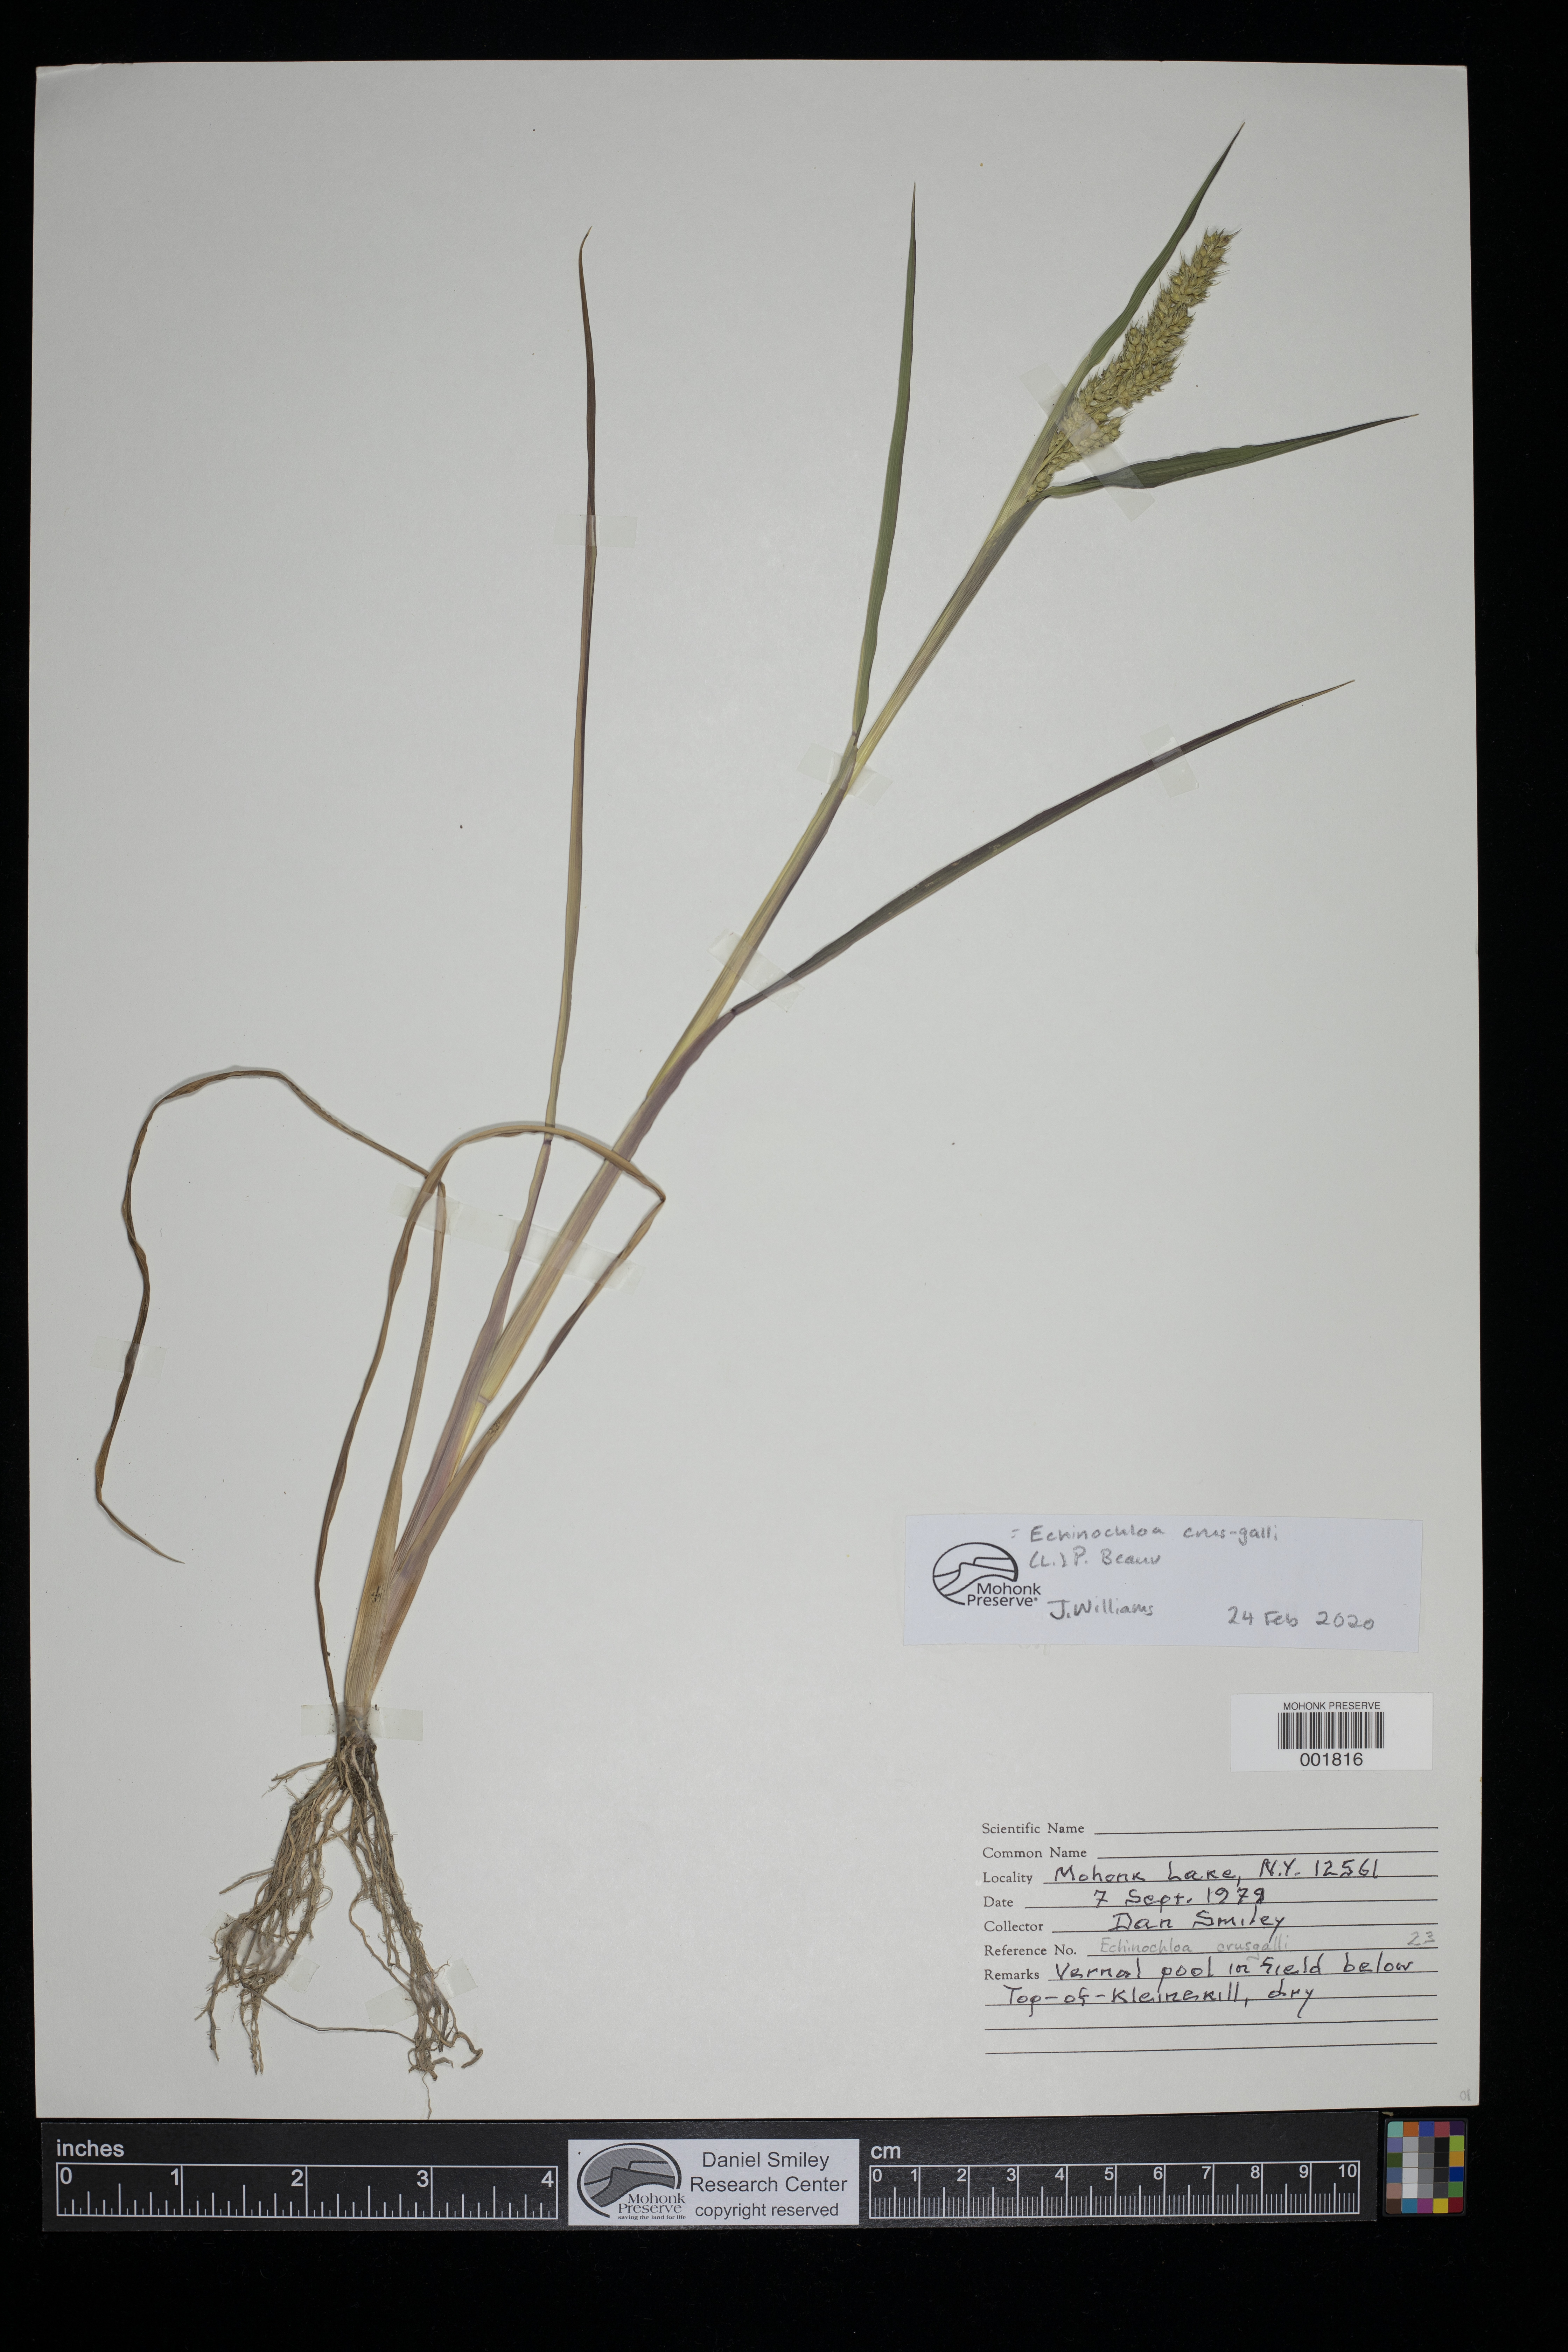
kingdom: Plantae
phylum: Tracheophyta
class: Liliopsida
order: Poales
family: Poaceae
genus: Echinochloa
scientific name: Echinochloa crus-galli
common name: Cockspur
